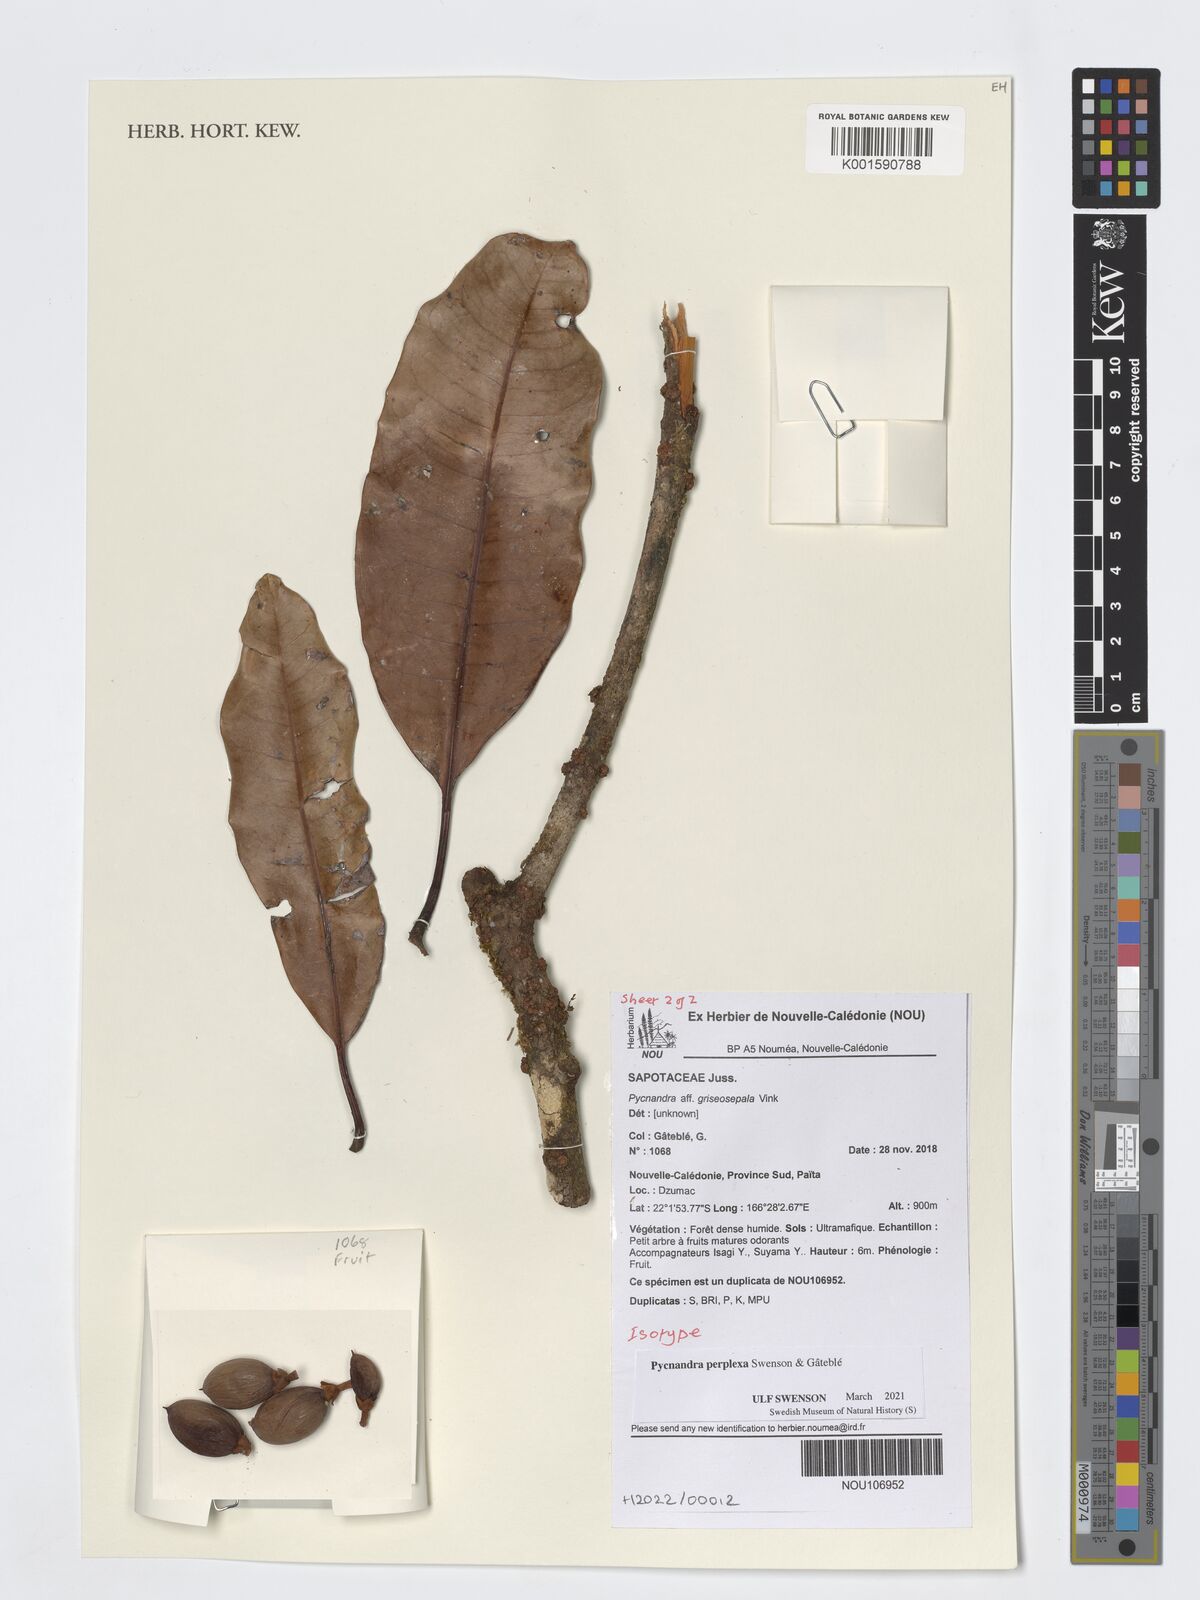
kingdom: Plantae
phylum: Tracheophyta
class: Magnoliopsida
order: Ericales
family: Sapotaceae
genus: Pycnandra
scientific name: Pycnandra
